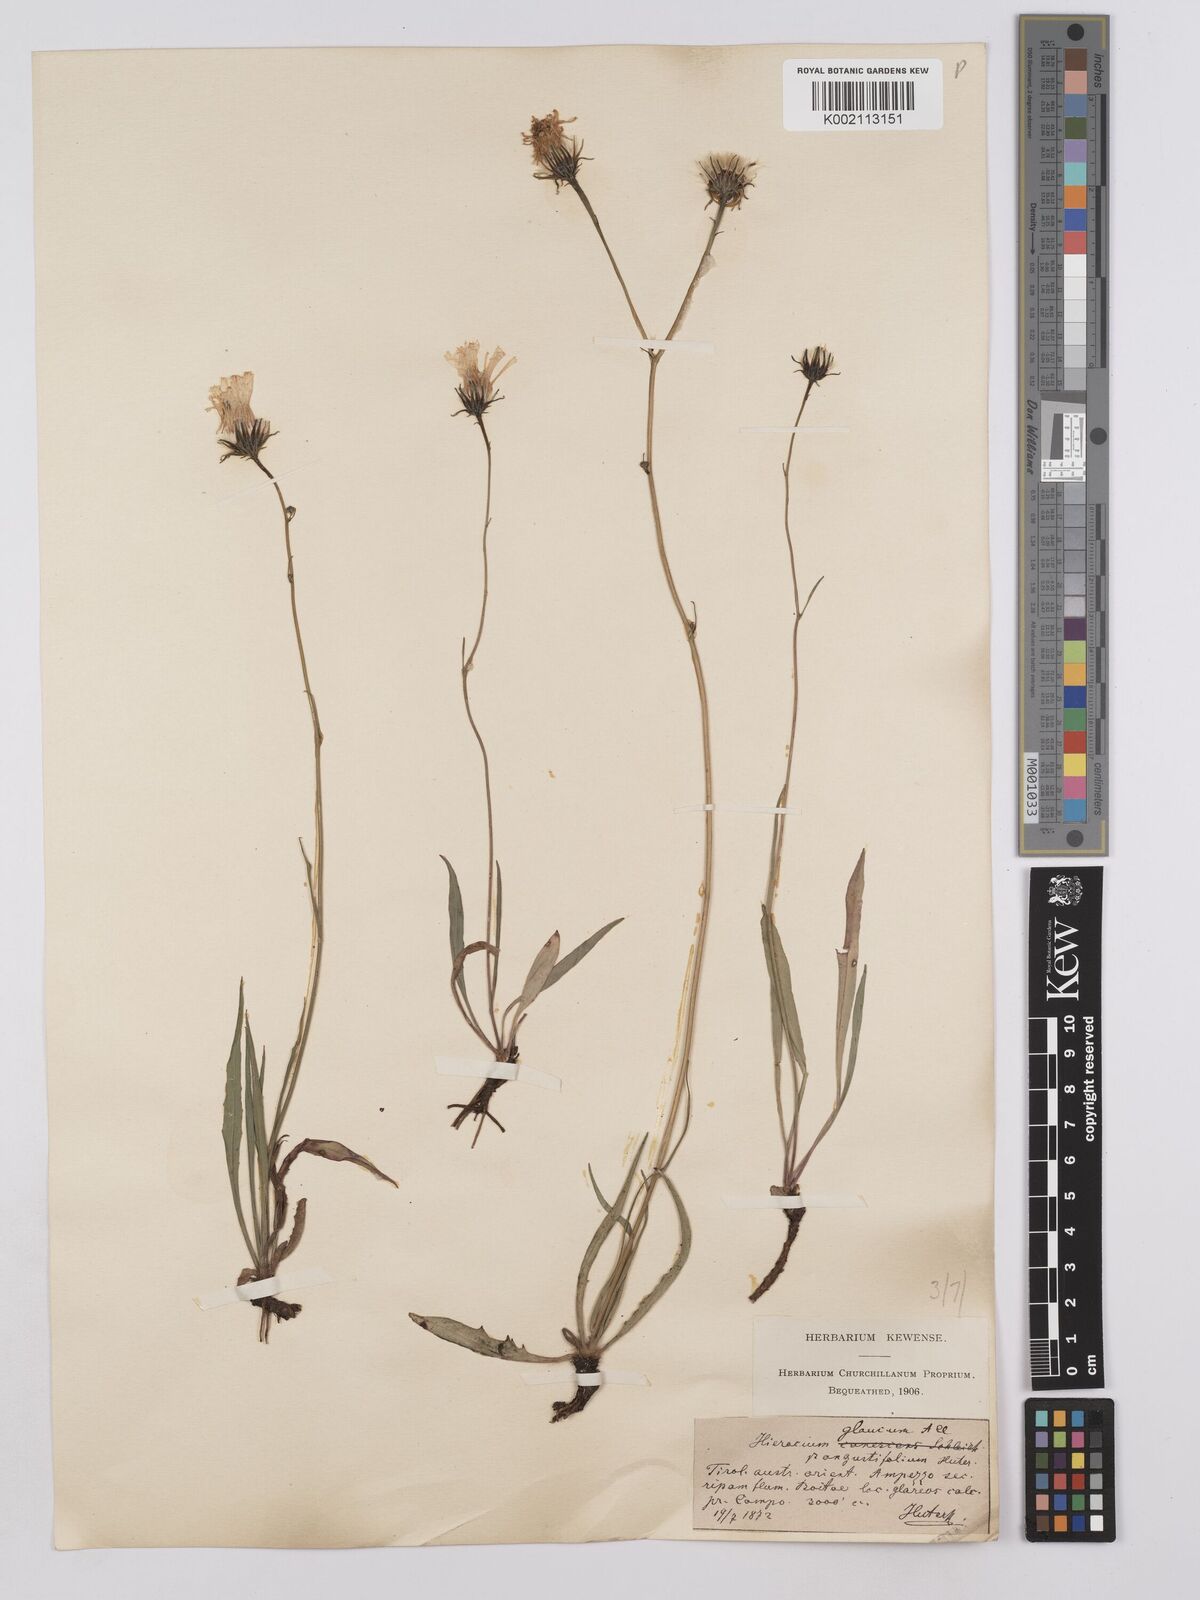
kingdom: Plantae
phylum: Tracheophyta
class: Magnoliopsida
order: Asterales
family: Asteraceae
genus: Hieracium
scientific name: Hieracium glaucum
